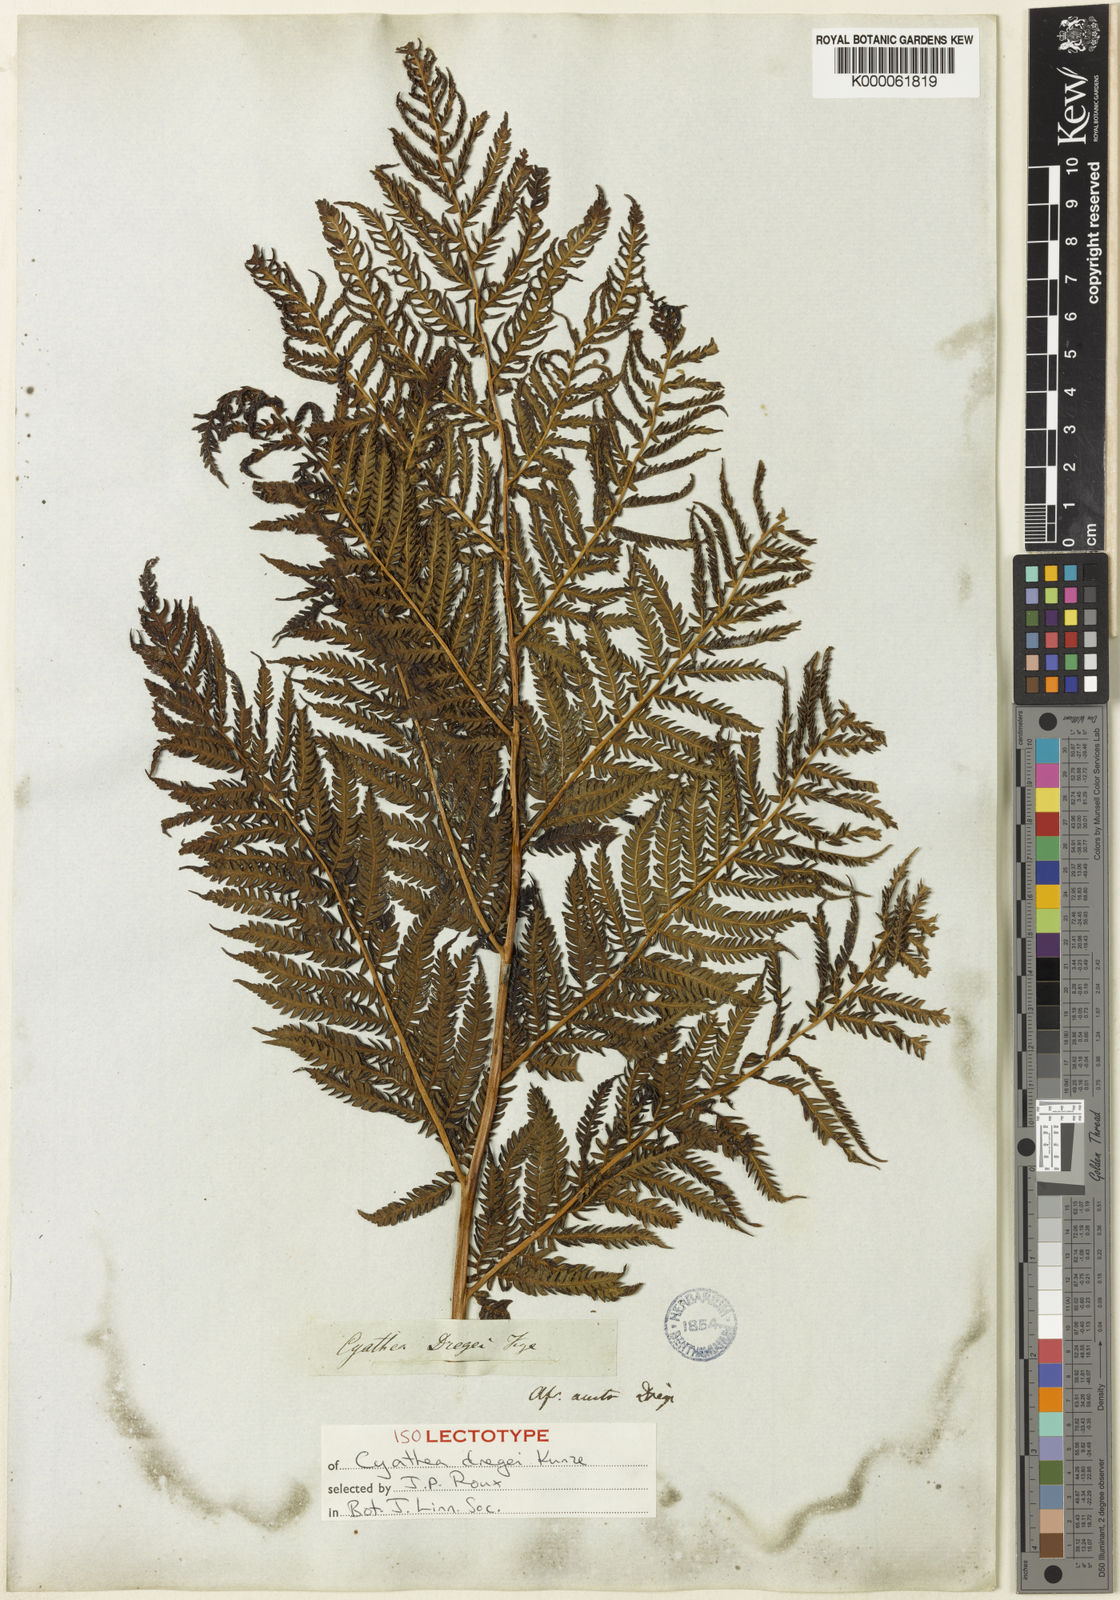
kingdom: Plantae
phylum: Tracheophyta
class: Polypodiopsida
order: Cyatheales
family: Cyatheaceae
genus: Alsophila
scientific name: Alsophila dregei
